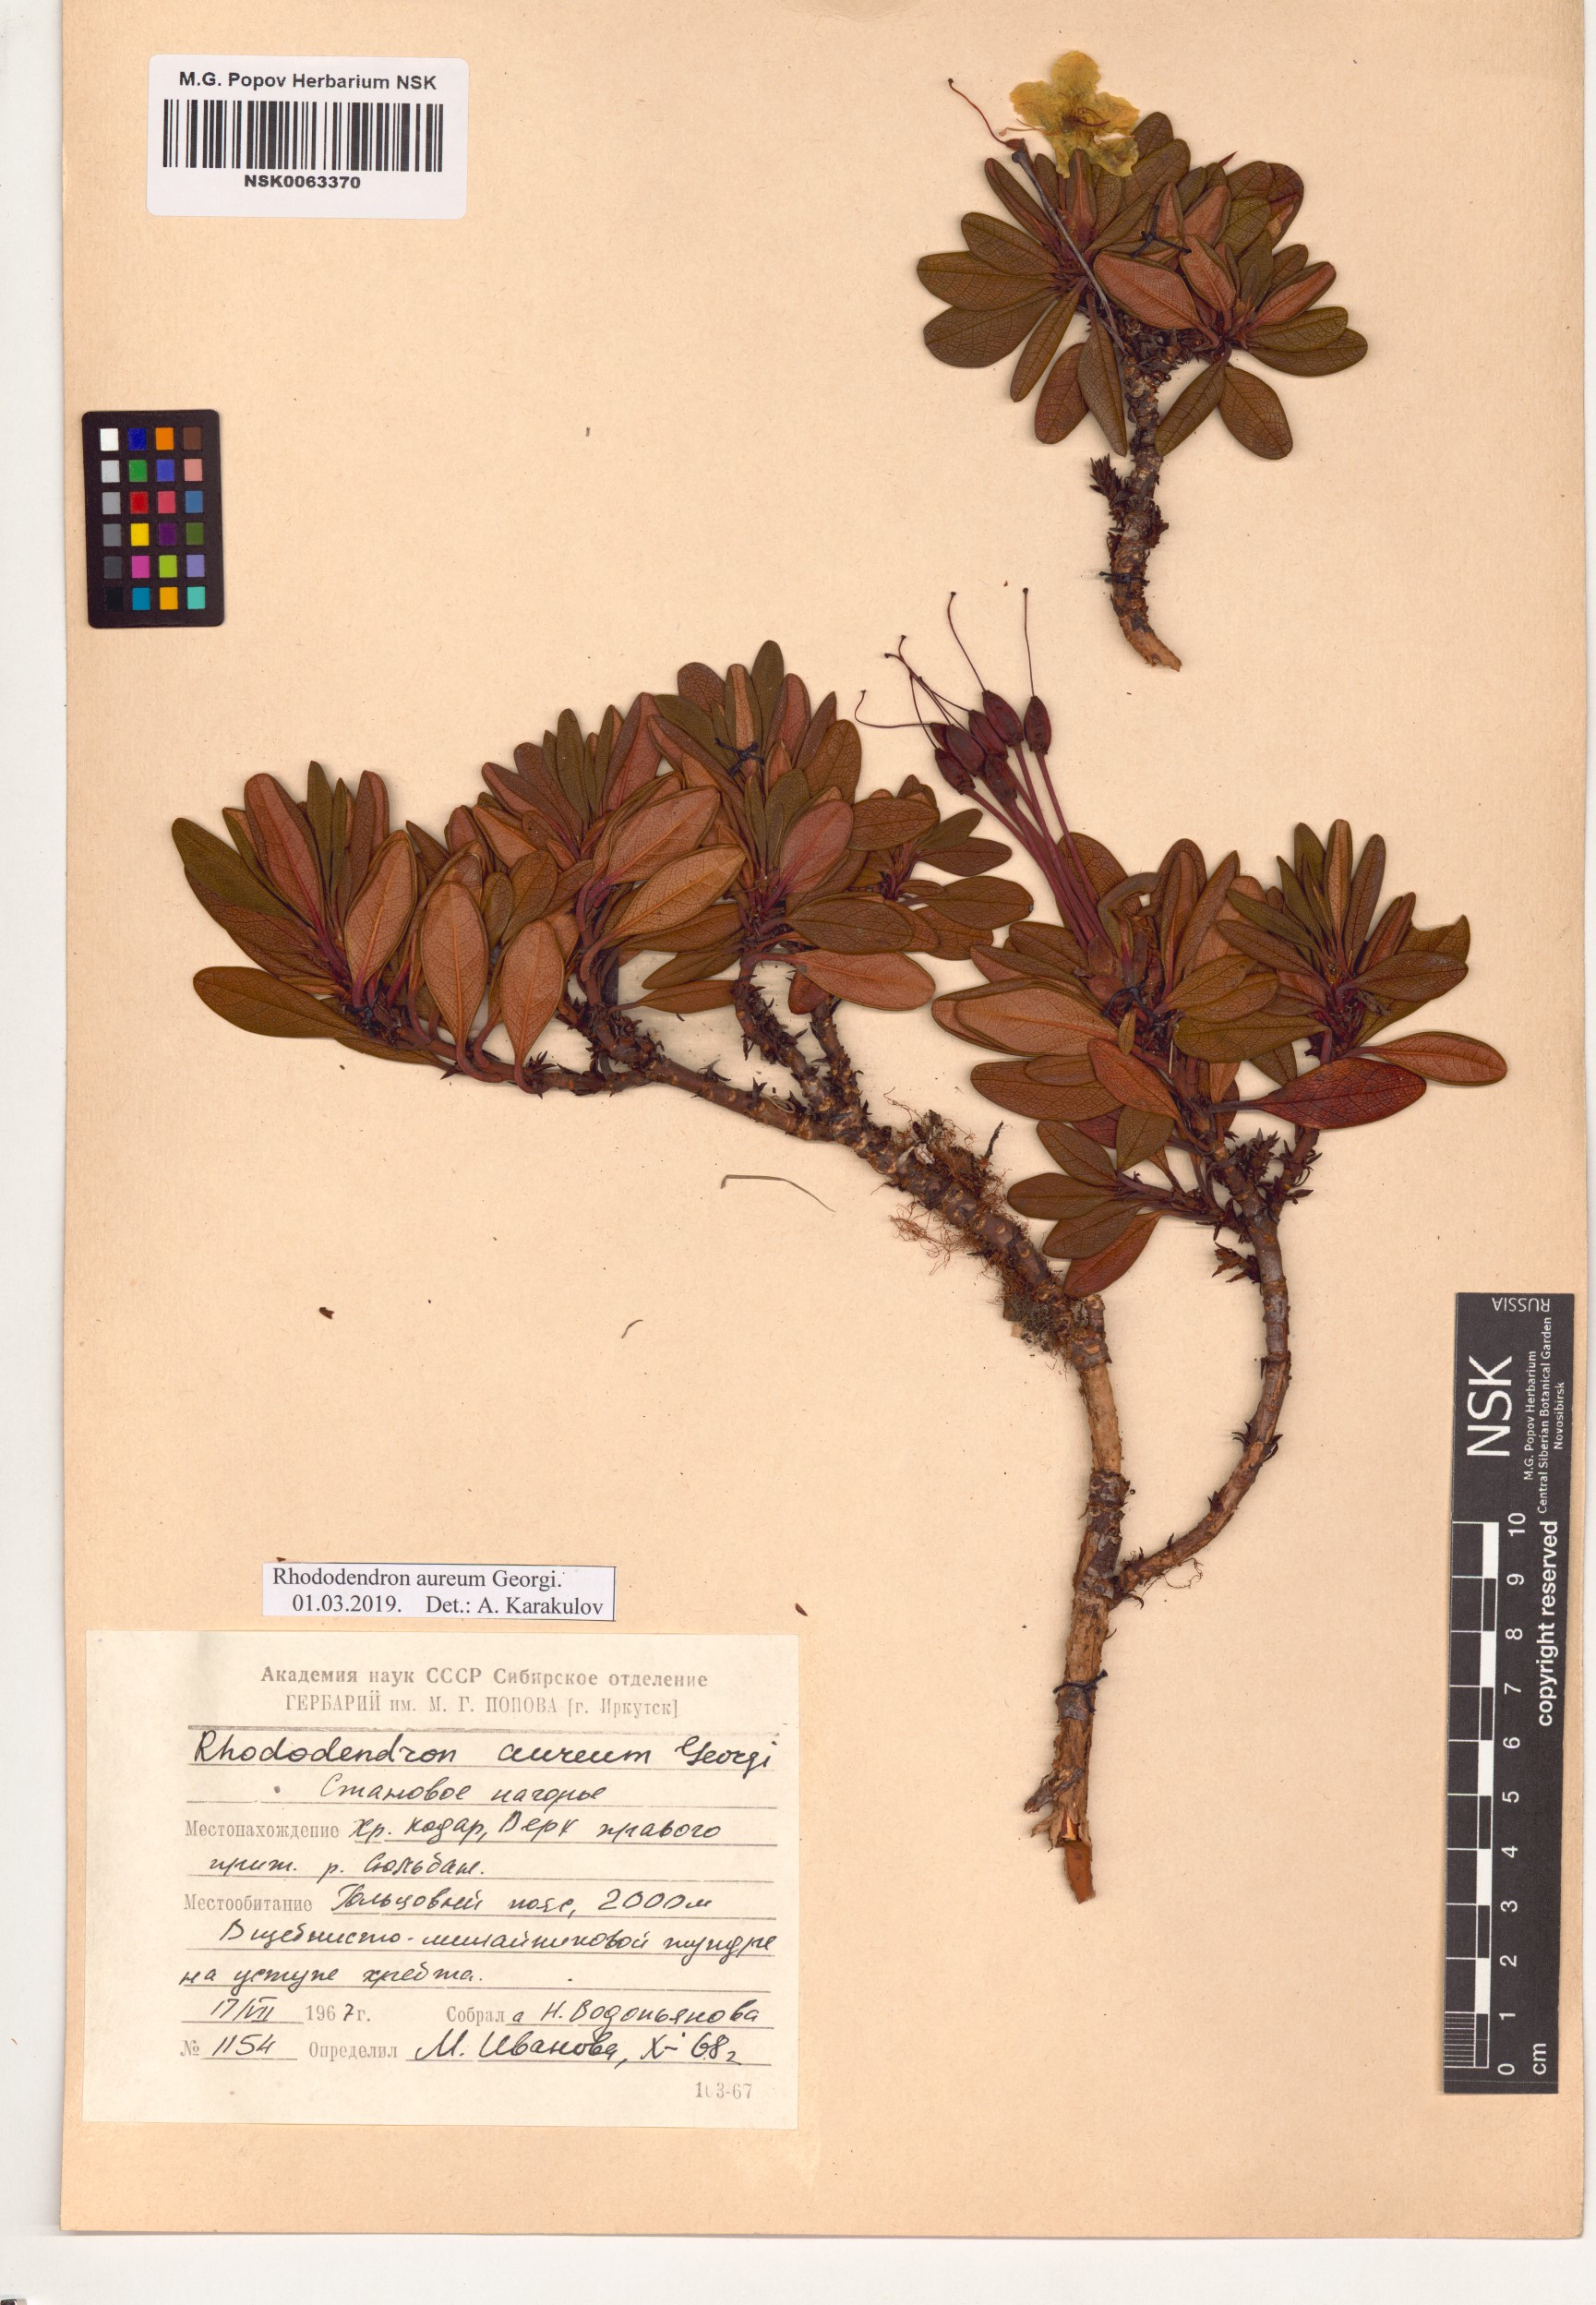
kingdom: Plantae
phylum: Tracheophyta
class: Magnoliopsida
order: Ericales
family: Ericaceae
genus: Rhododendron
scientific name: Rhododendron aureum
